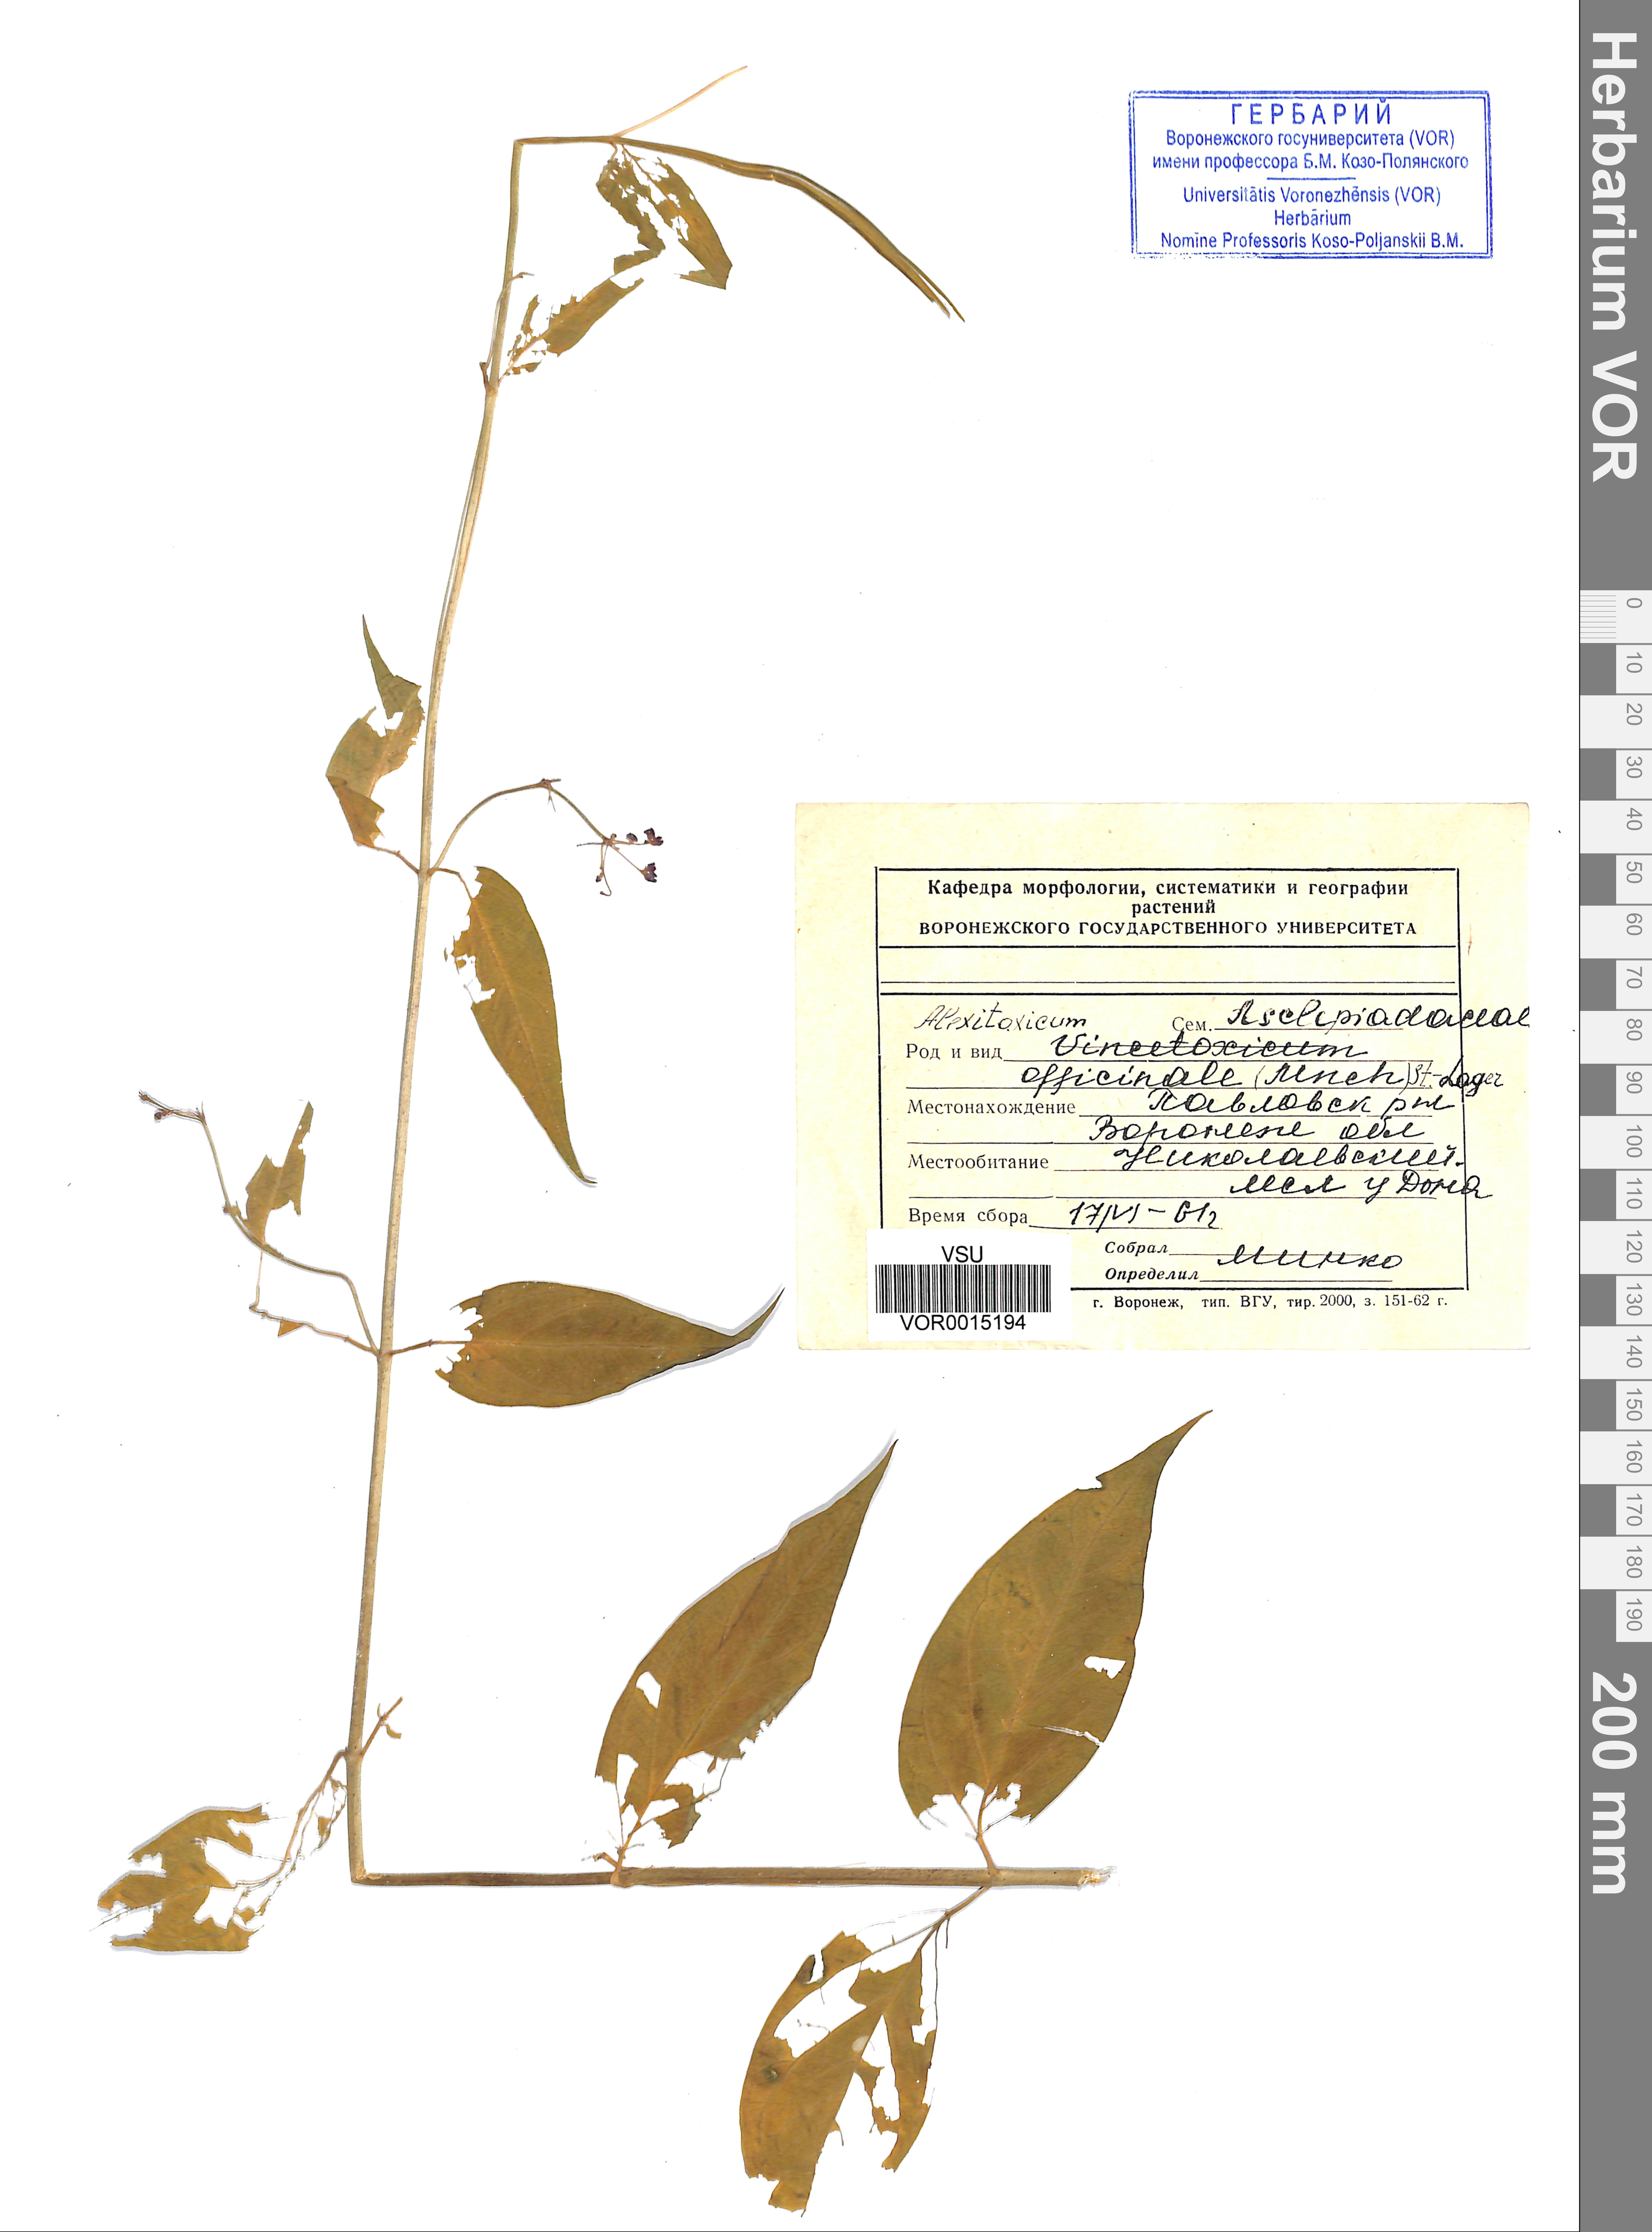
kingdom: Plantae
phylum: Tracheophyta
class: Magnoliopsida
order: Gentianales
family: Apocynaceae
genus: Vincetoxicum
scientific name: Vincetoxicum hirundinaria
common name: White swallowwort
